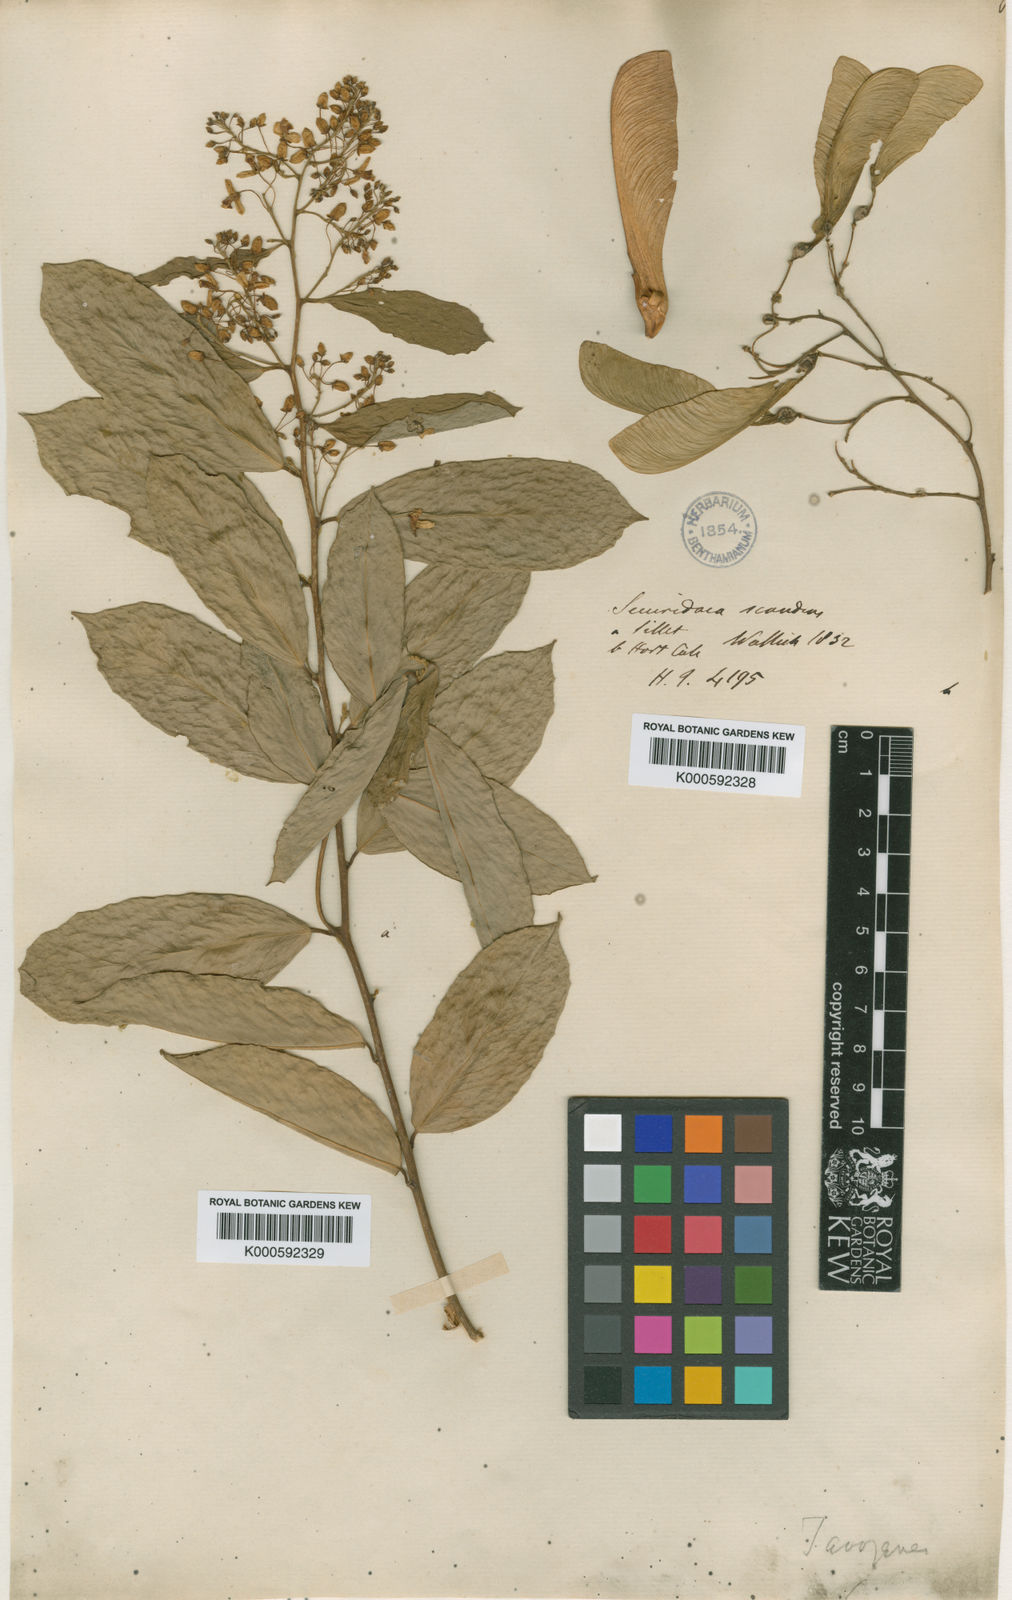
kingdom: Plantae
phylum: Tracheophyta
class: Magnoliopsida
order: Fabales
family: Polygalaceae
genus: Securidaca
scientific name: Securidaca inappendiculata
